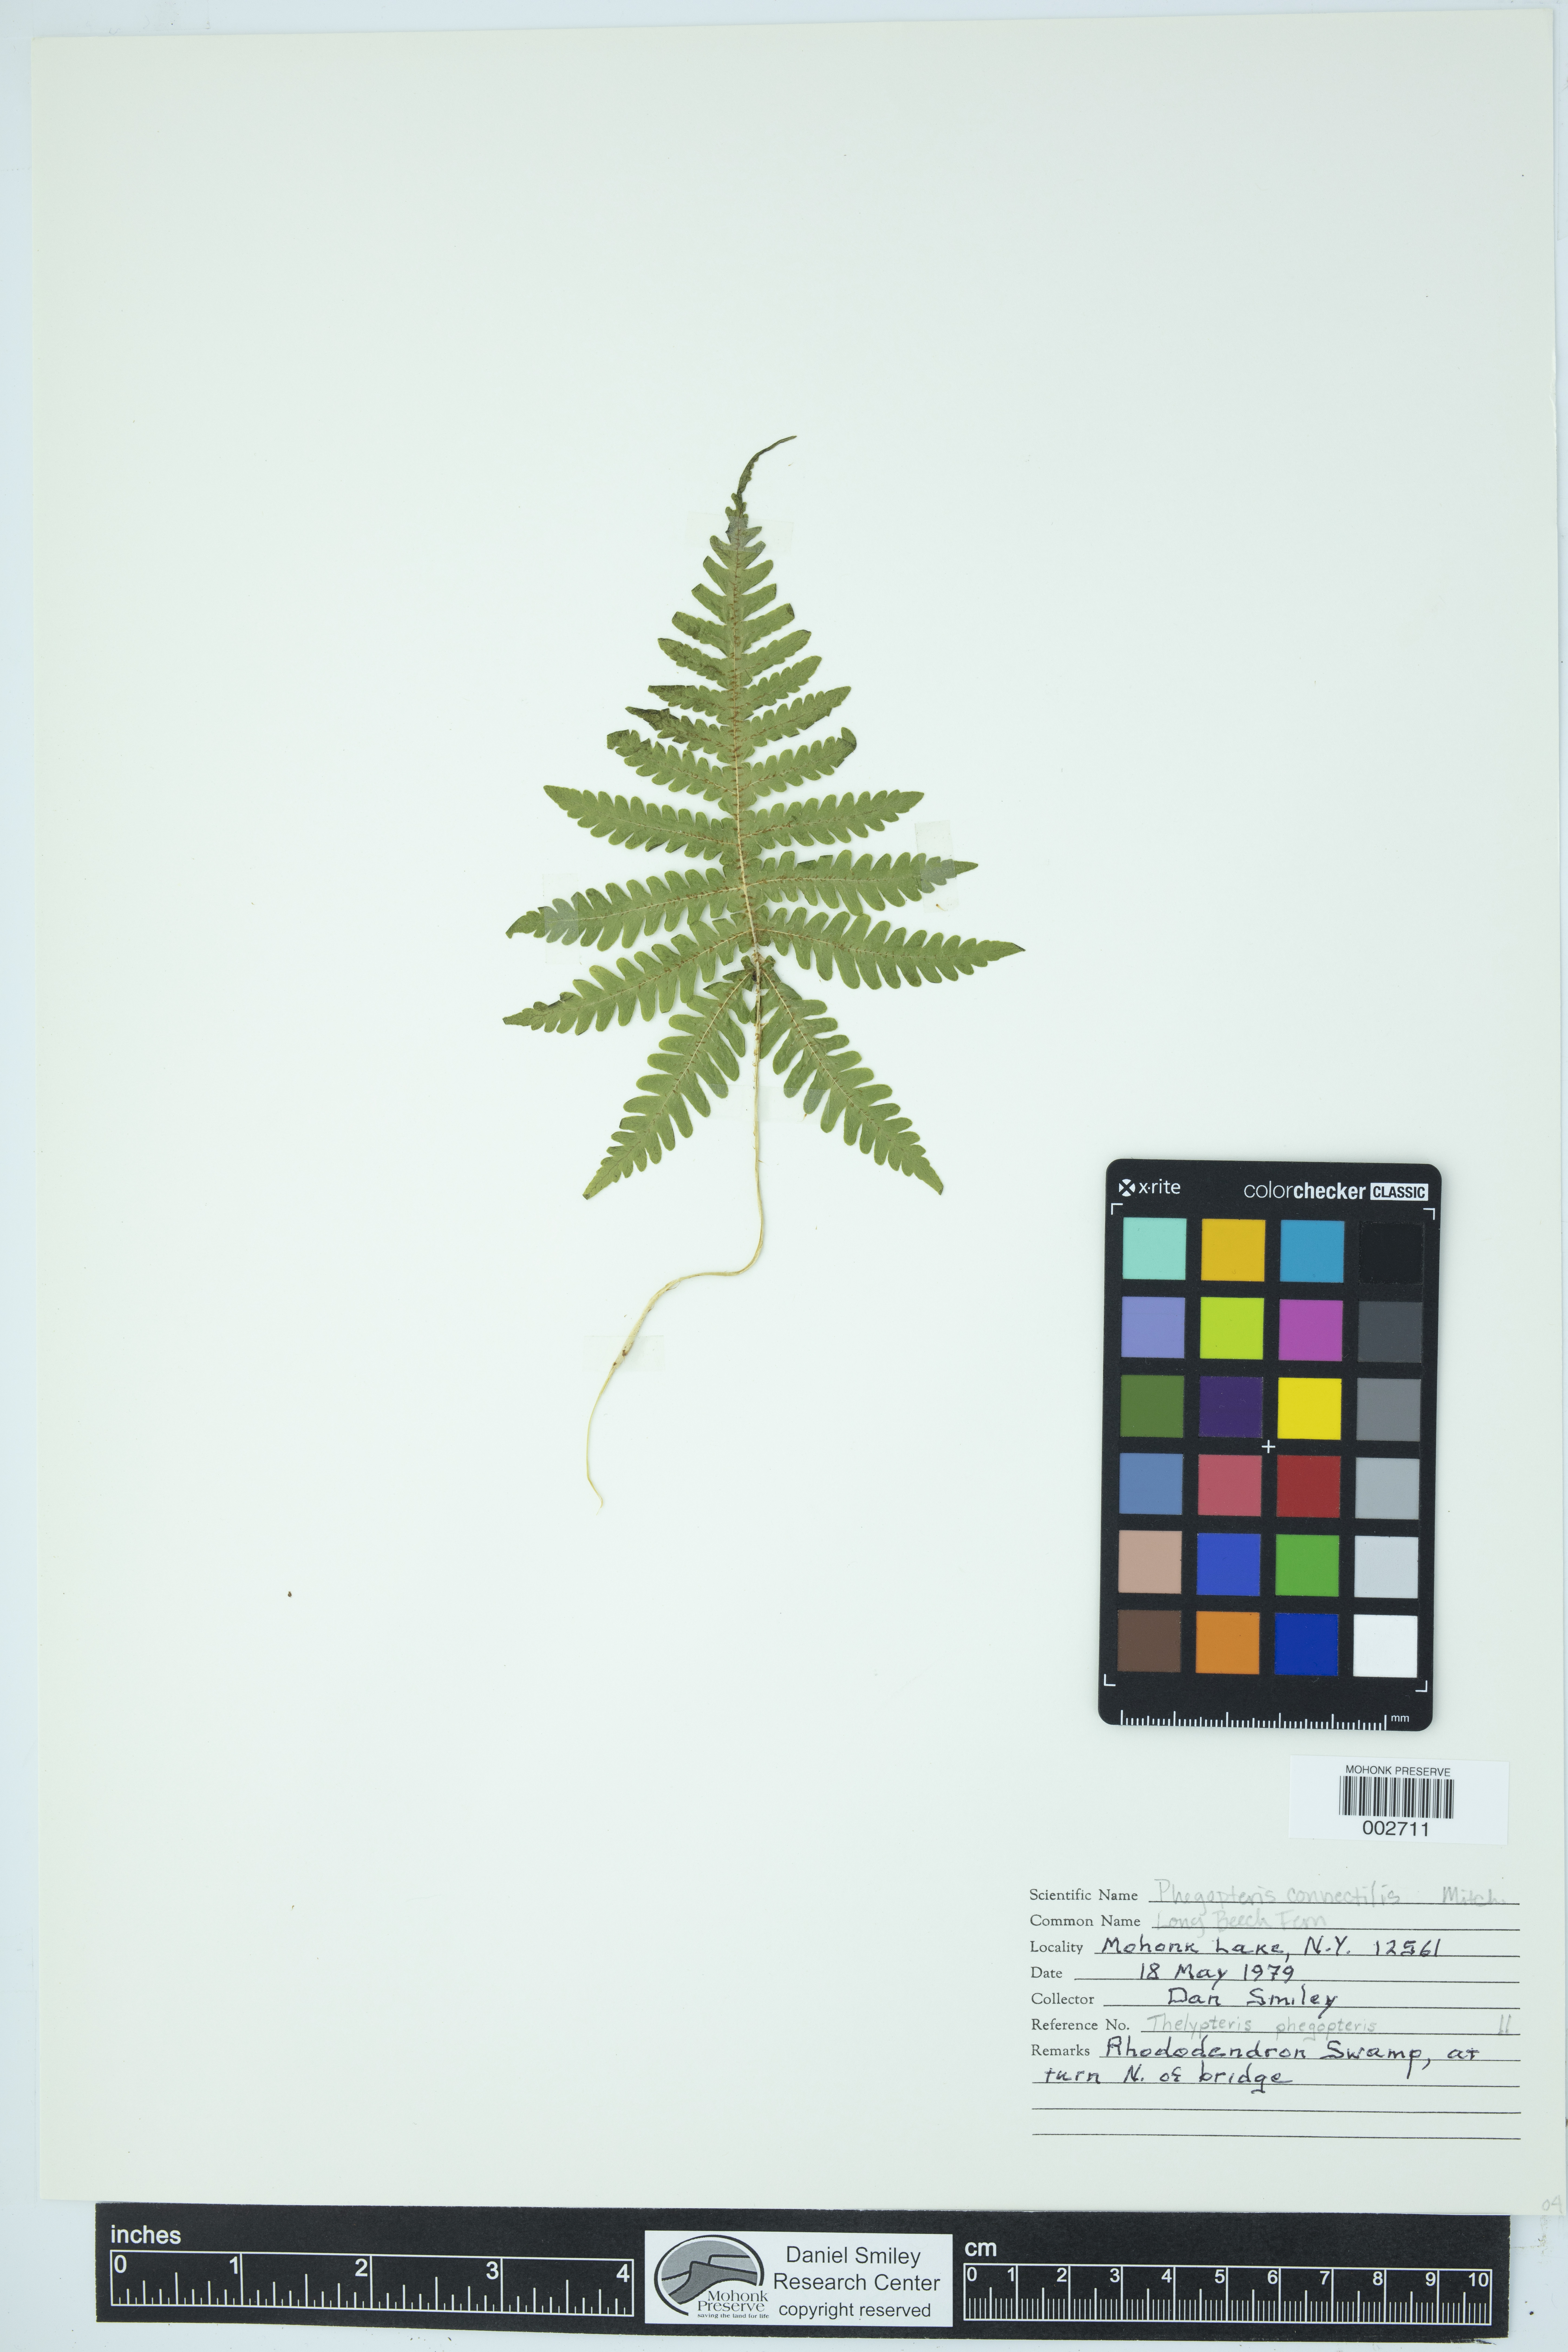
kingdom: Plantae
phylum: Tracheophyta
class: Polypodiopsida
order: Polypodiales
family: Thelypteridaceae
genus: Phegopteris
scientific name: Phegopteris connectilis
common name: Beech fern
